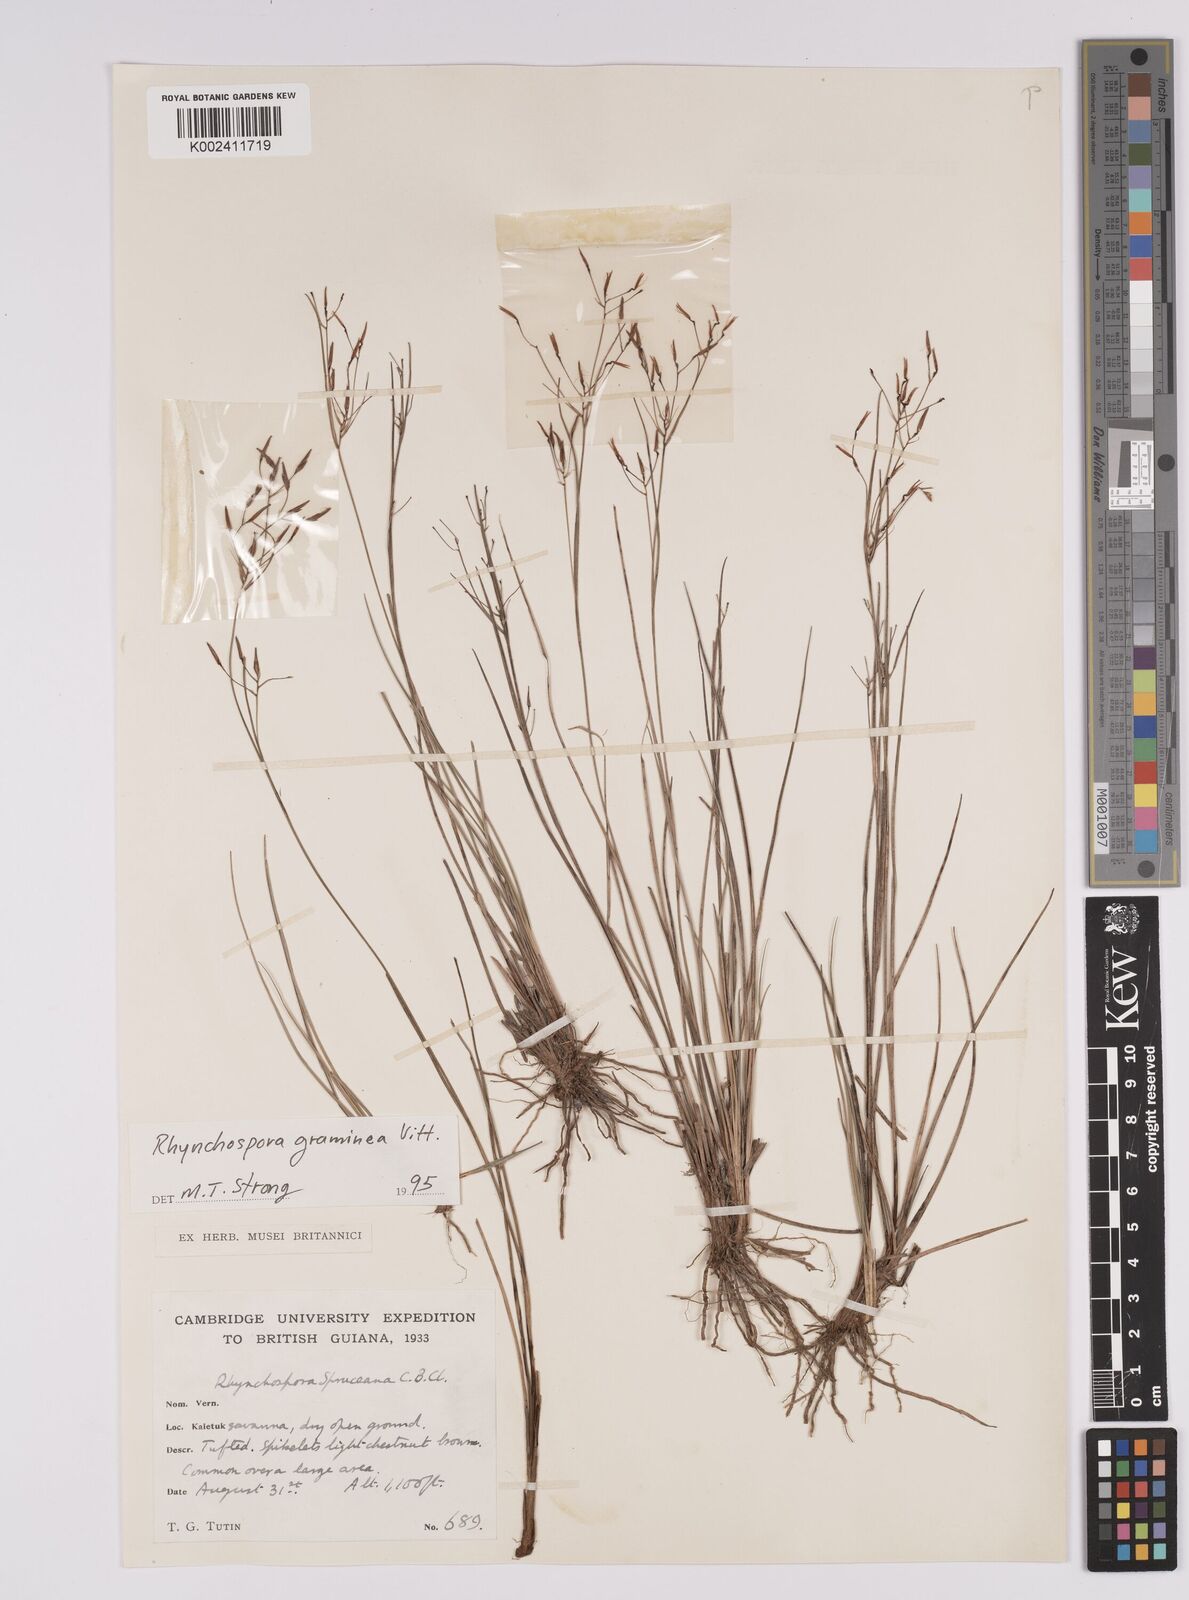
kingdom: Plantae
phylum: Tracheophyta
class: Liliopsida
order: Poales
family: Cyperaceae
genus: Rhynchospora
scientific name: Rhynchospora spruceana
